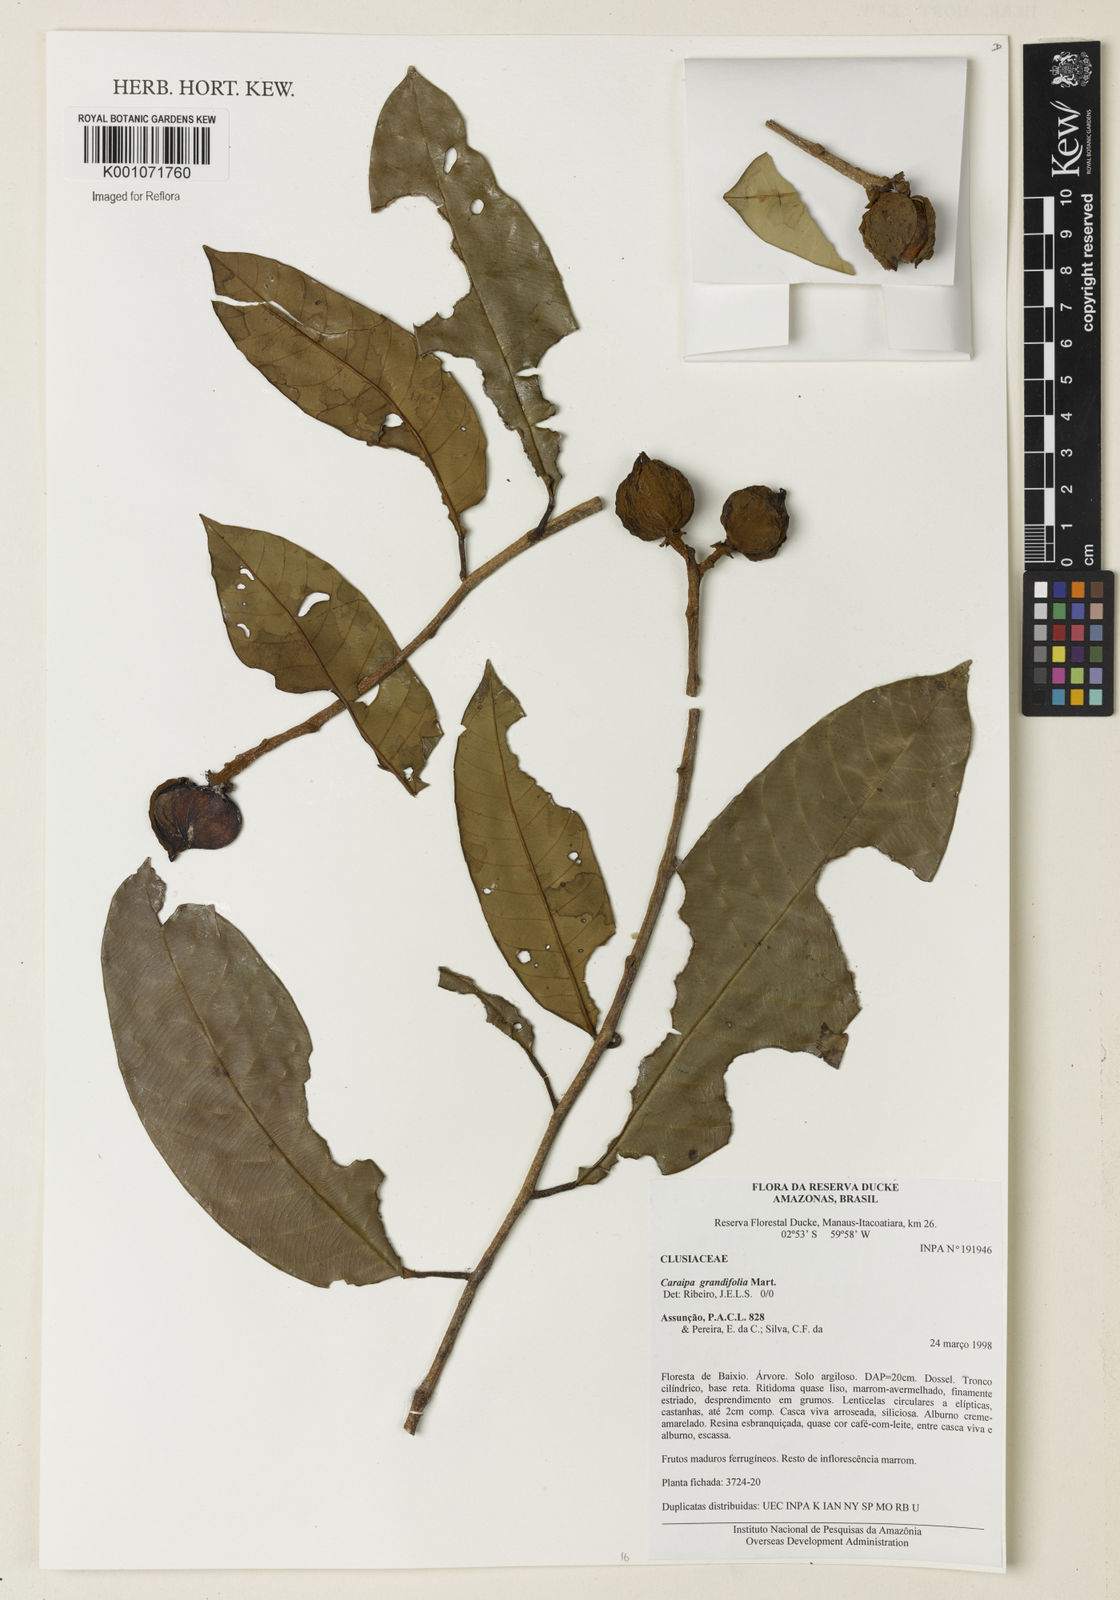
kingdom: Plantae
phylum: Tracheophyta
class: Magnoliopsida
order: Malpighiales
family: Calophyllaceae
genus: Caraipa
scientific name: Caraipa grandifolia
